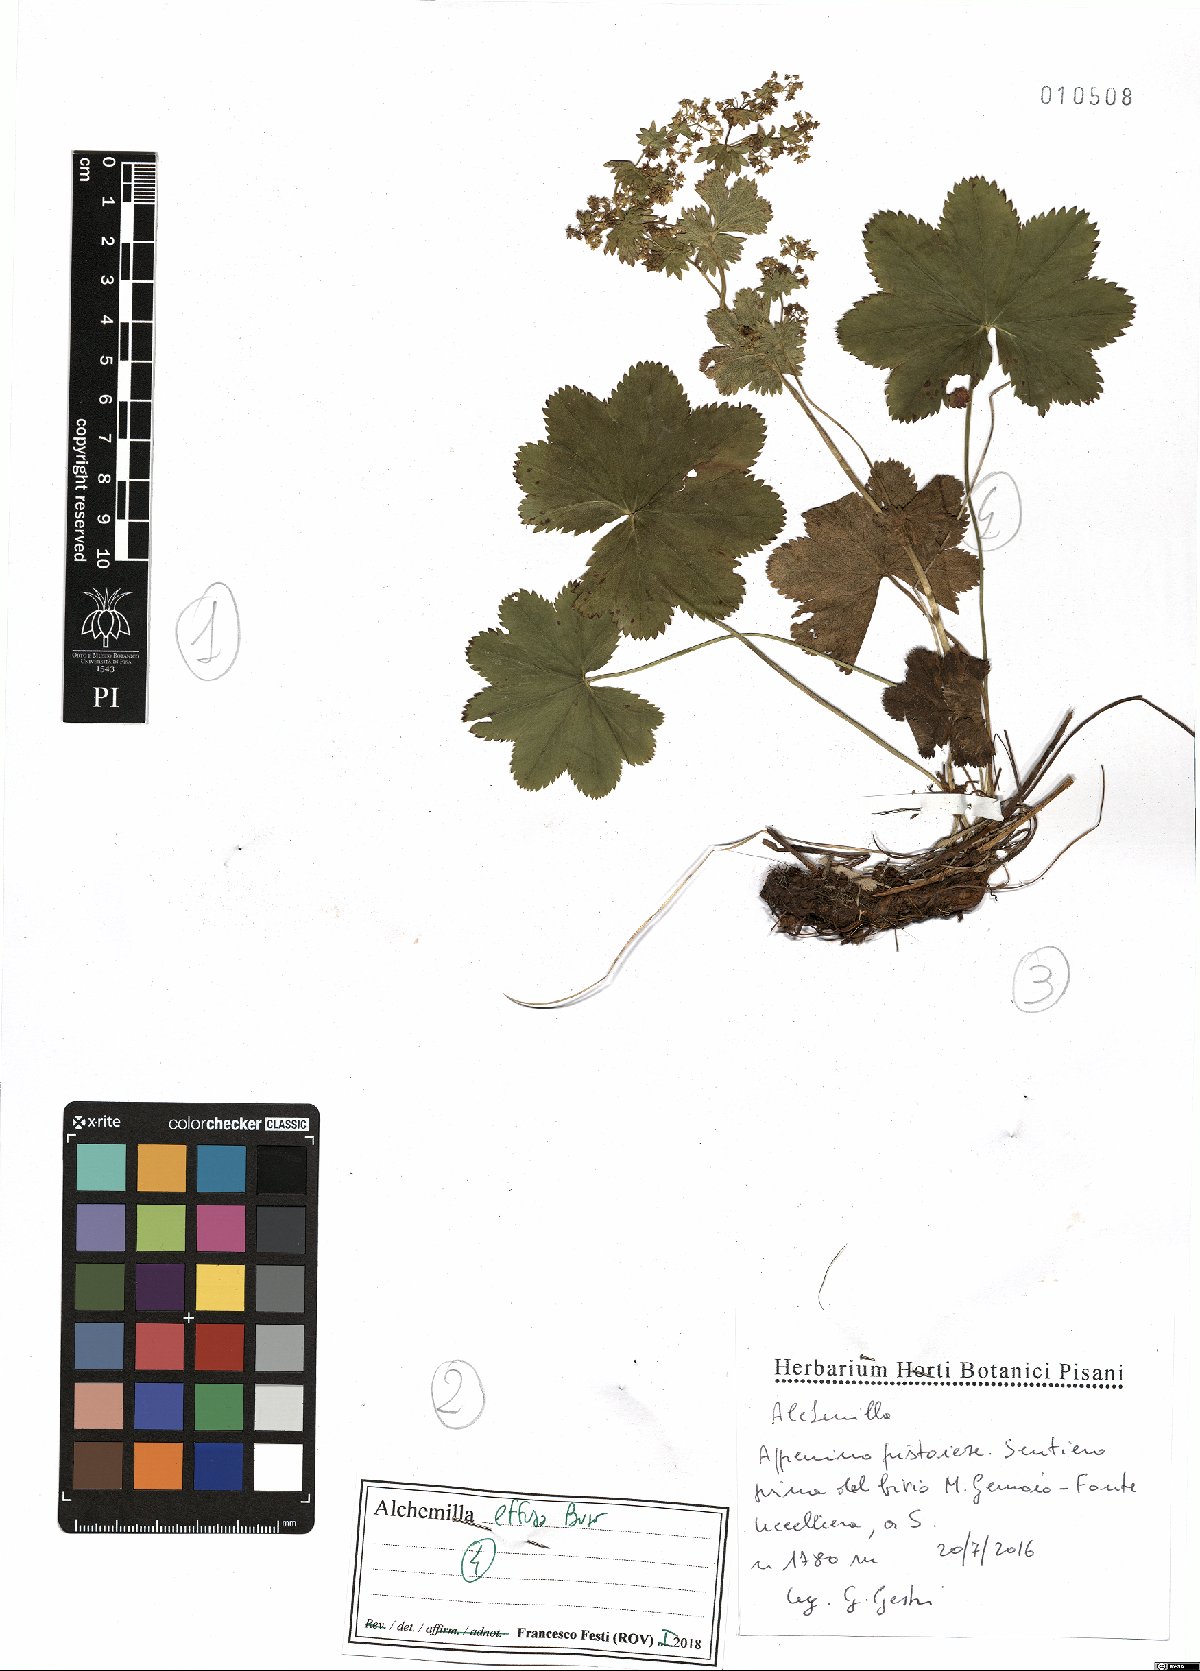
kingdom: Plantae
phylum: Tracheophyta
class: Magnoliopsida
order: Rosales
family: Rosaceae
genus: Alchemilla
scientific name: Alchemilla effusa
